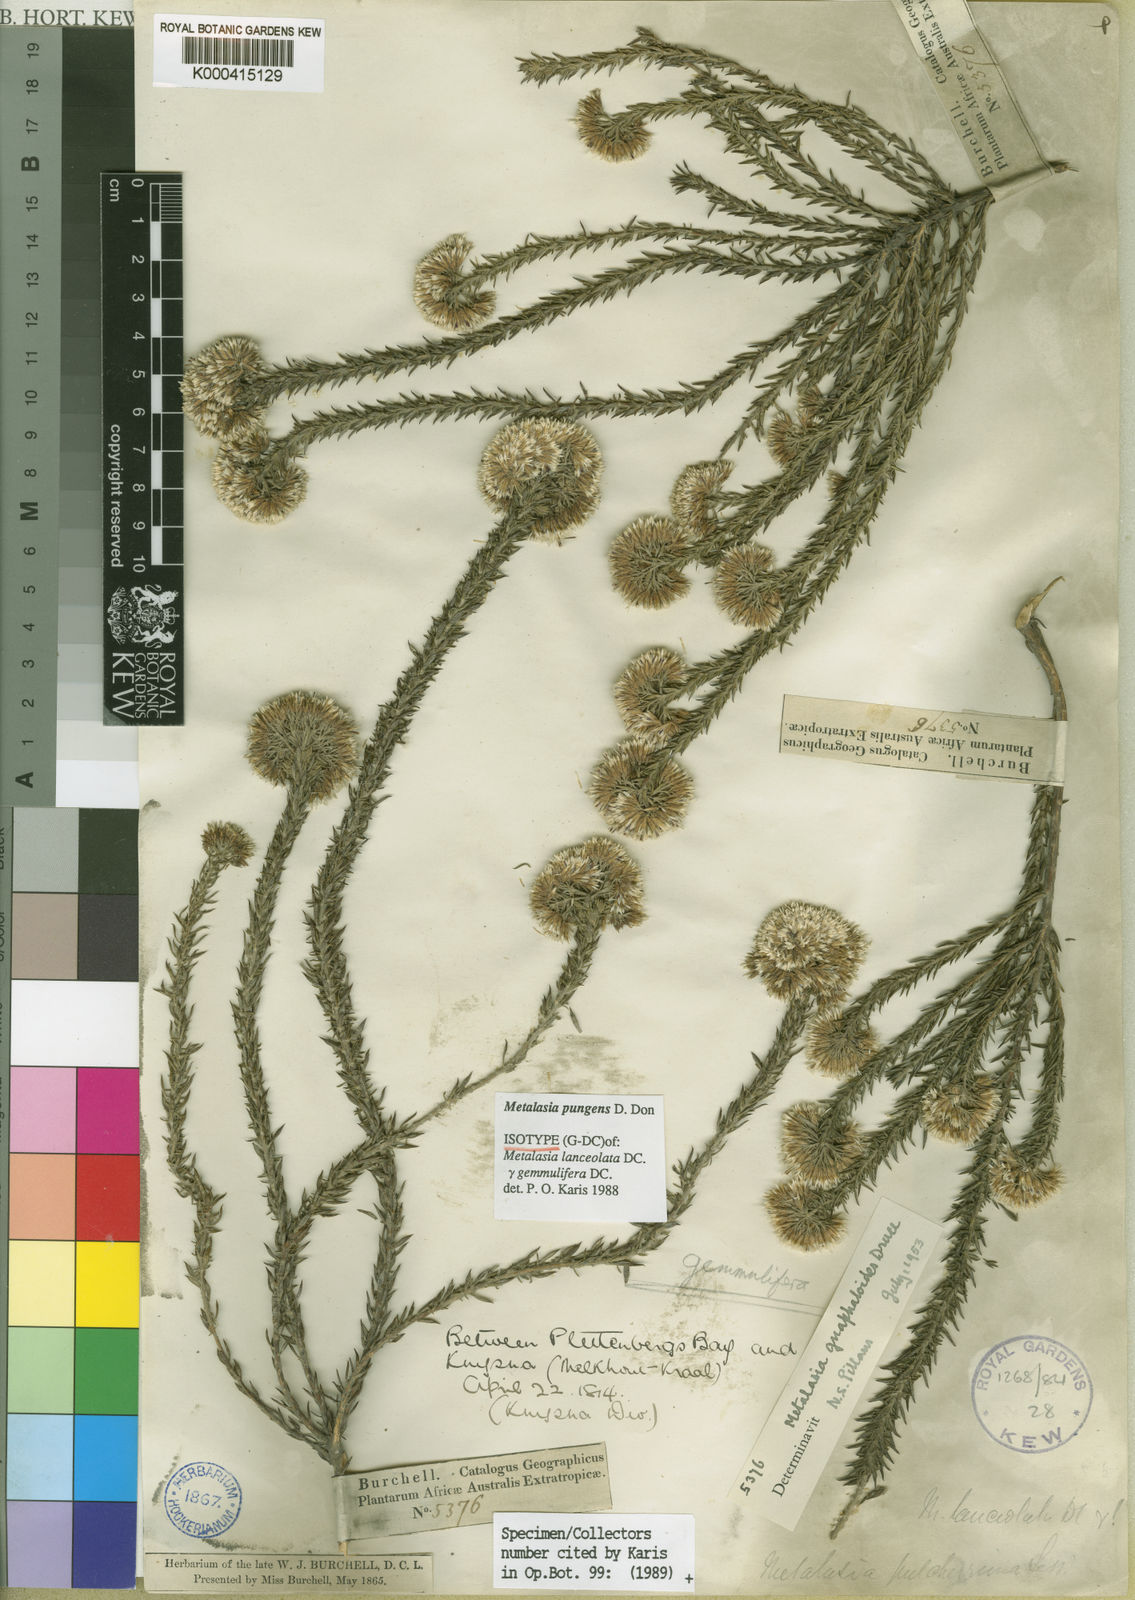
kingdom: Plantae
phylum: Tracheophyta
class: Magnoliopsida
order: Asterales
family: Asteraceae
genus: Metalasia
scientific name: Metalasia pungens
